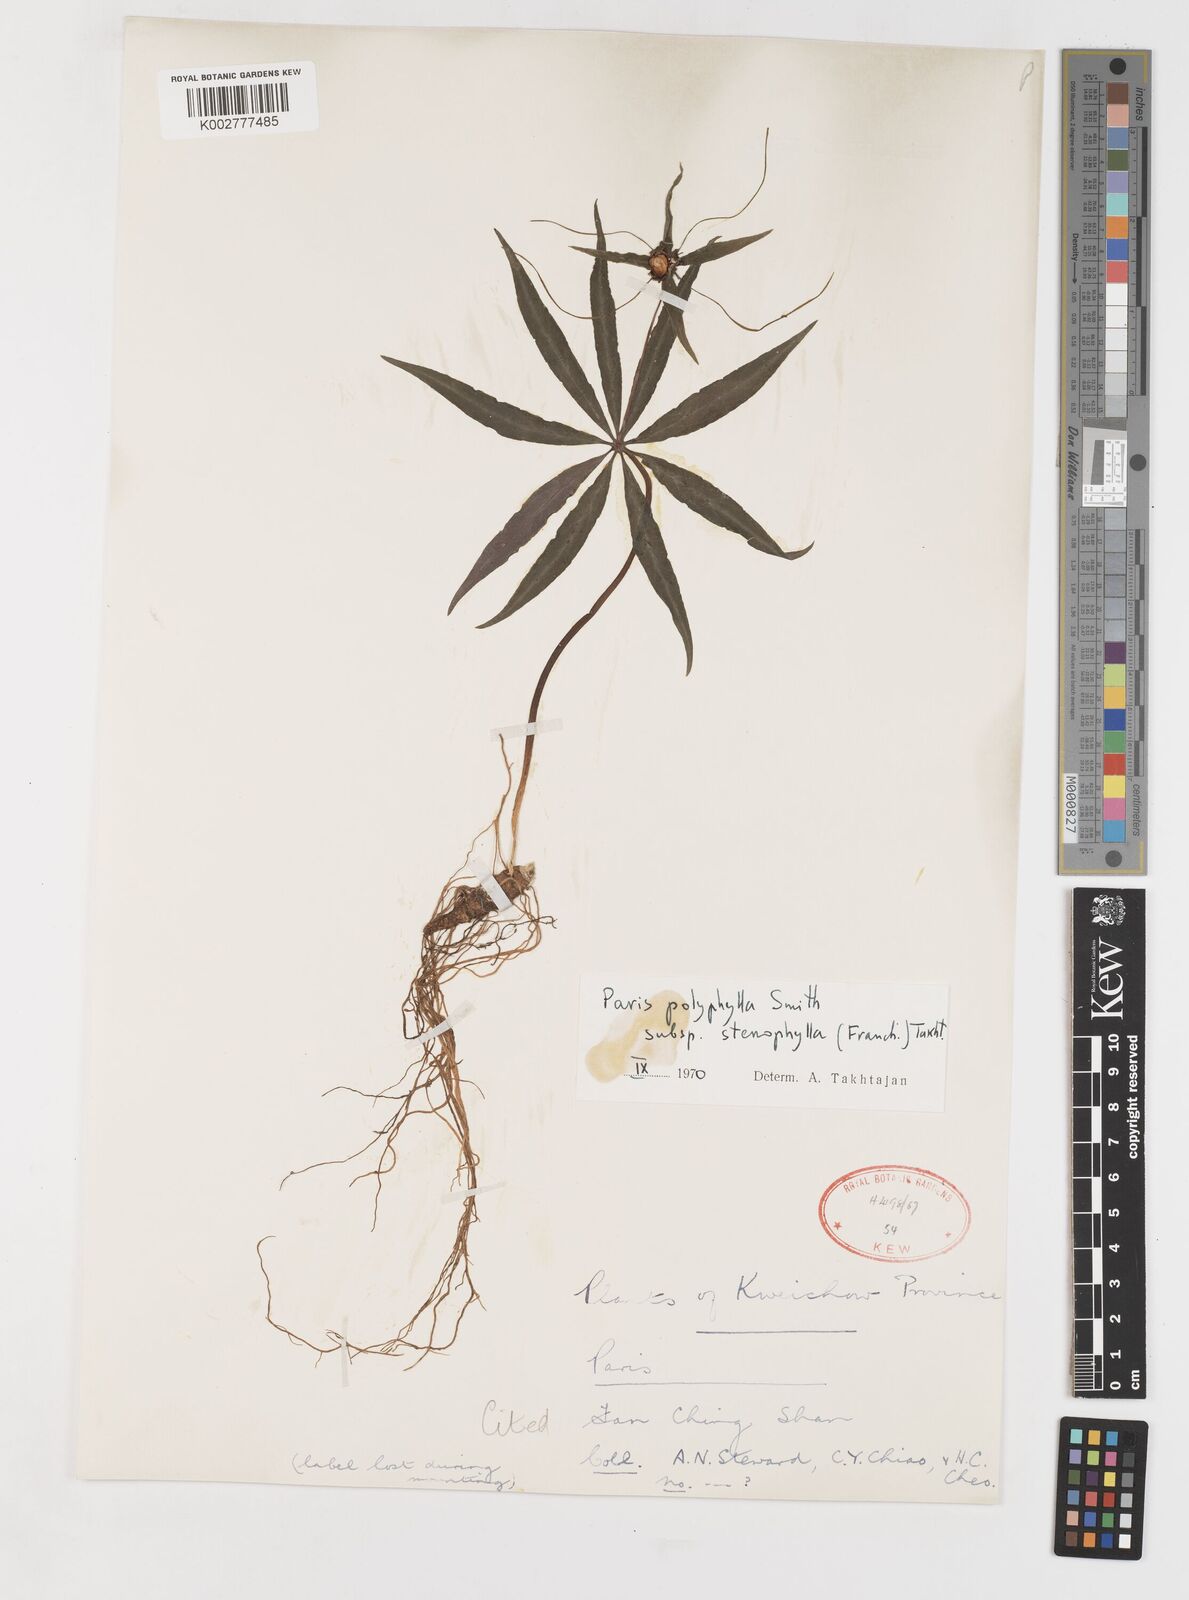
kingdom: Plantae
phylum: Tracheophyta
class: Liliopsida
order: Liliales
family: Melanthiaceae
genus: Paris
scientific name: Paris lancifolia
